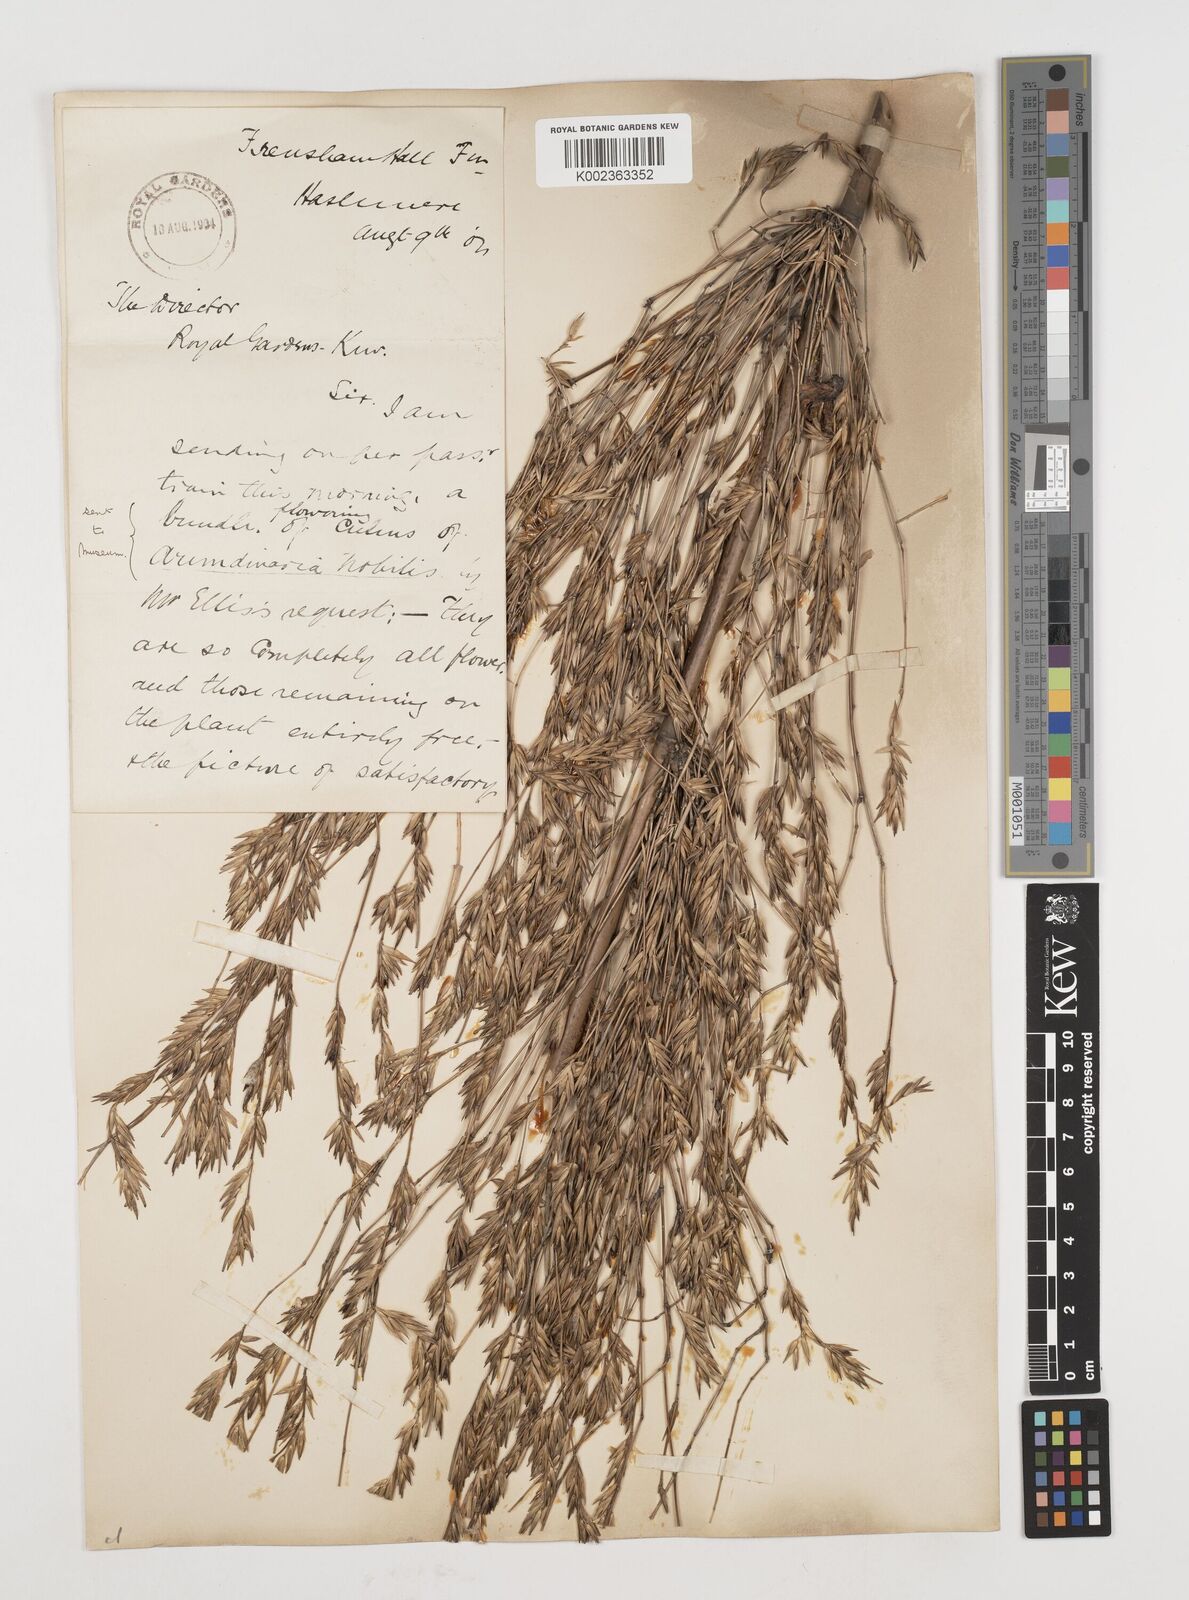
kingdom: Plantae
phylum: Tracheophyta
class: Liliopsida
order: Poales
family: Poaceae
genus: Himalayacalamus
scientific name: Himalayacalamus falconeri
